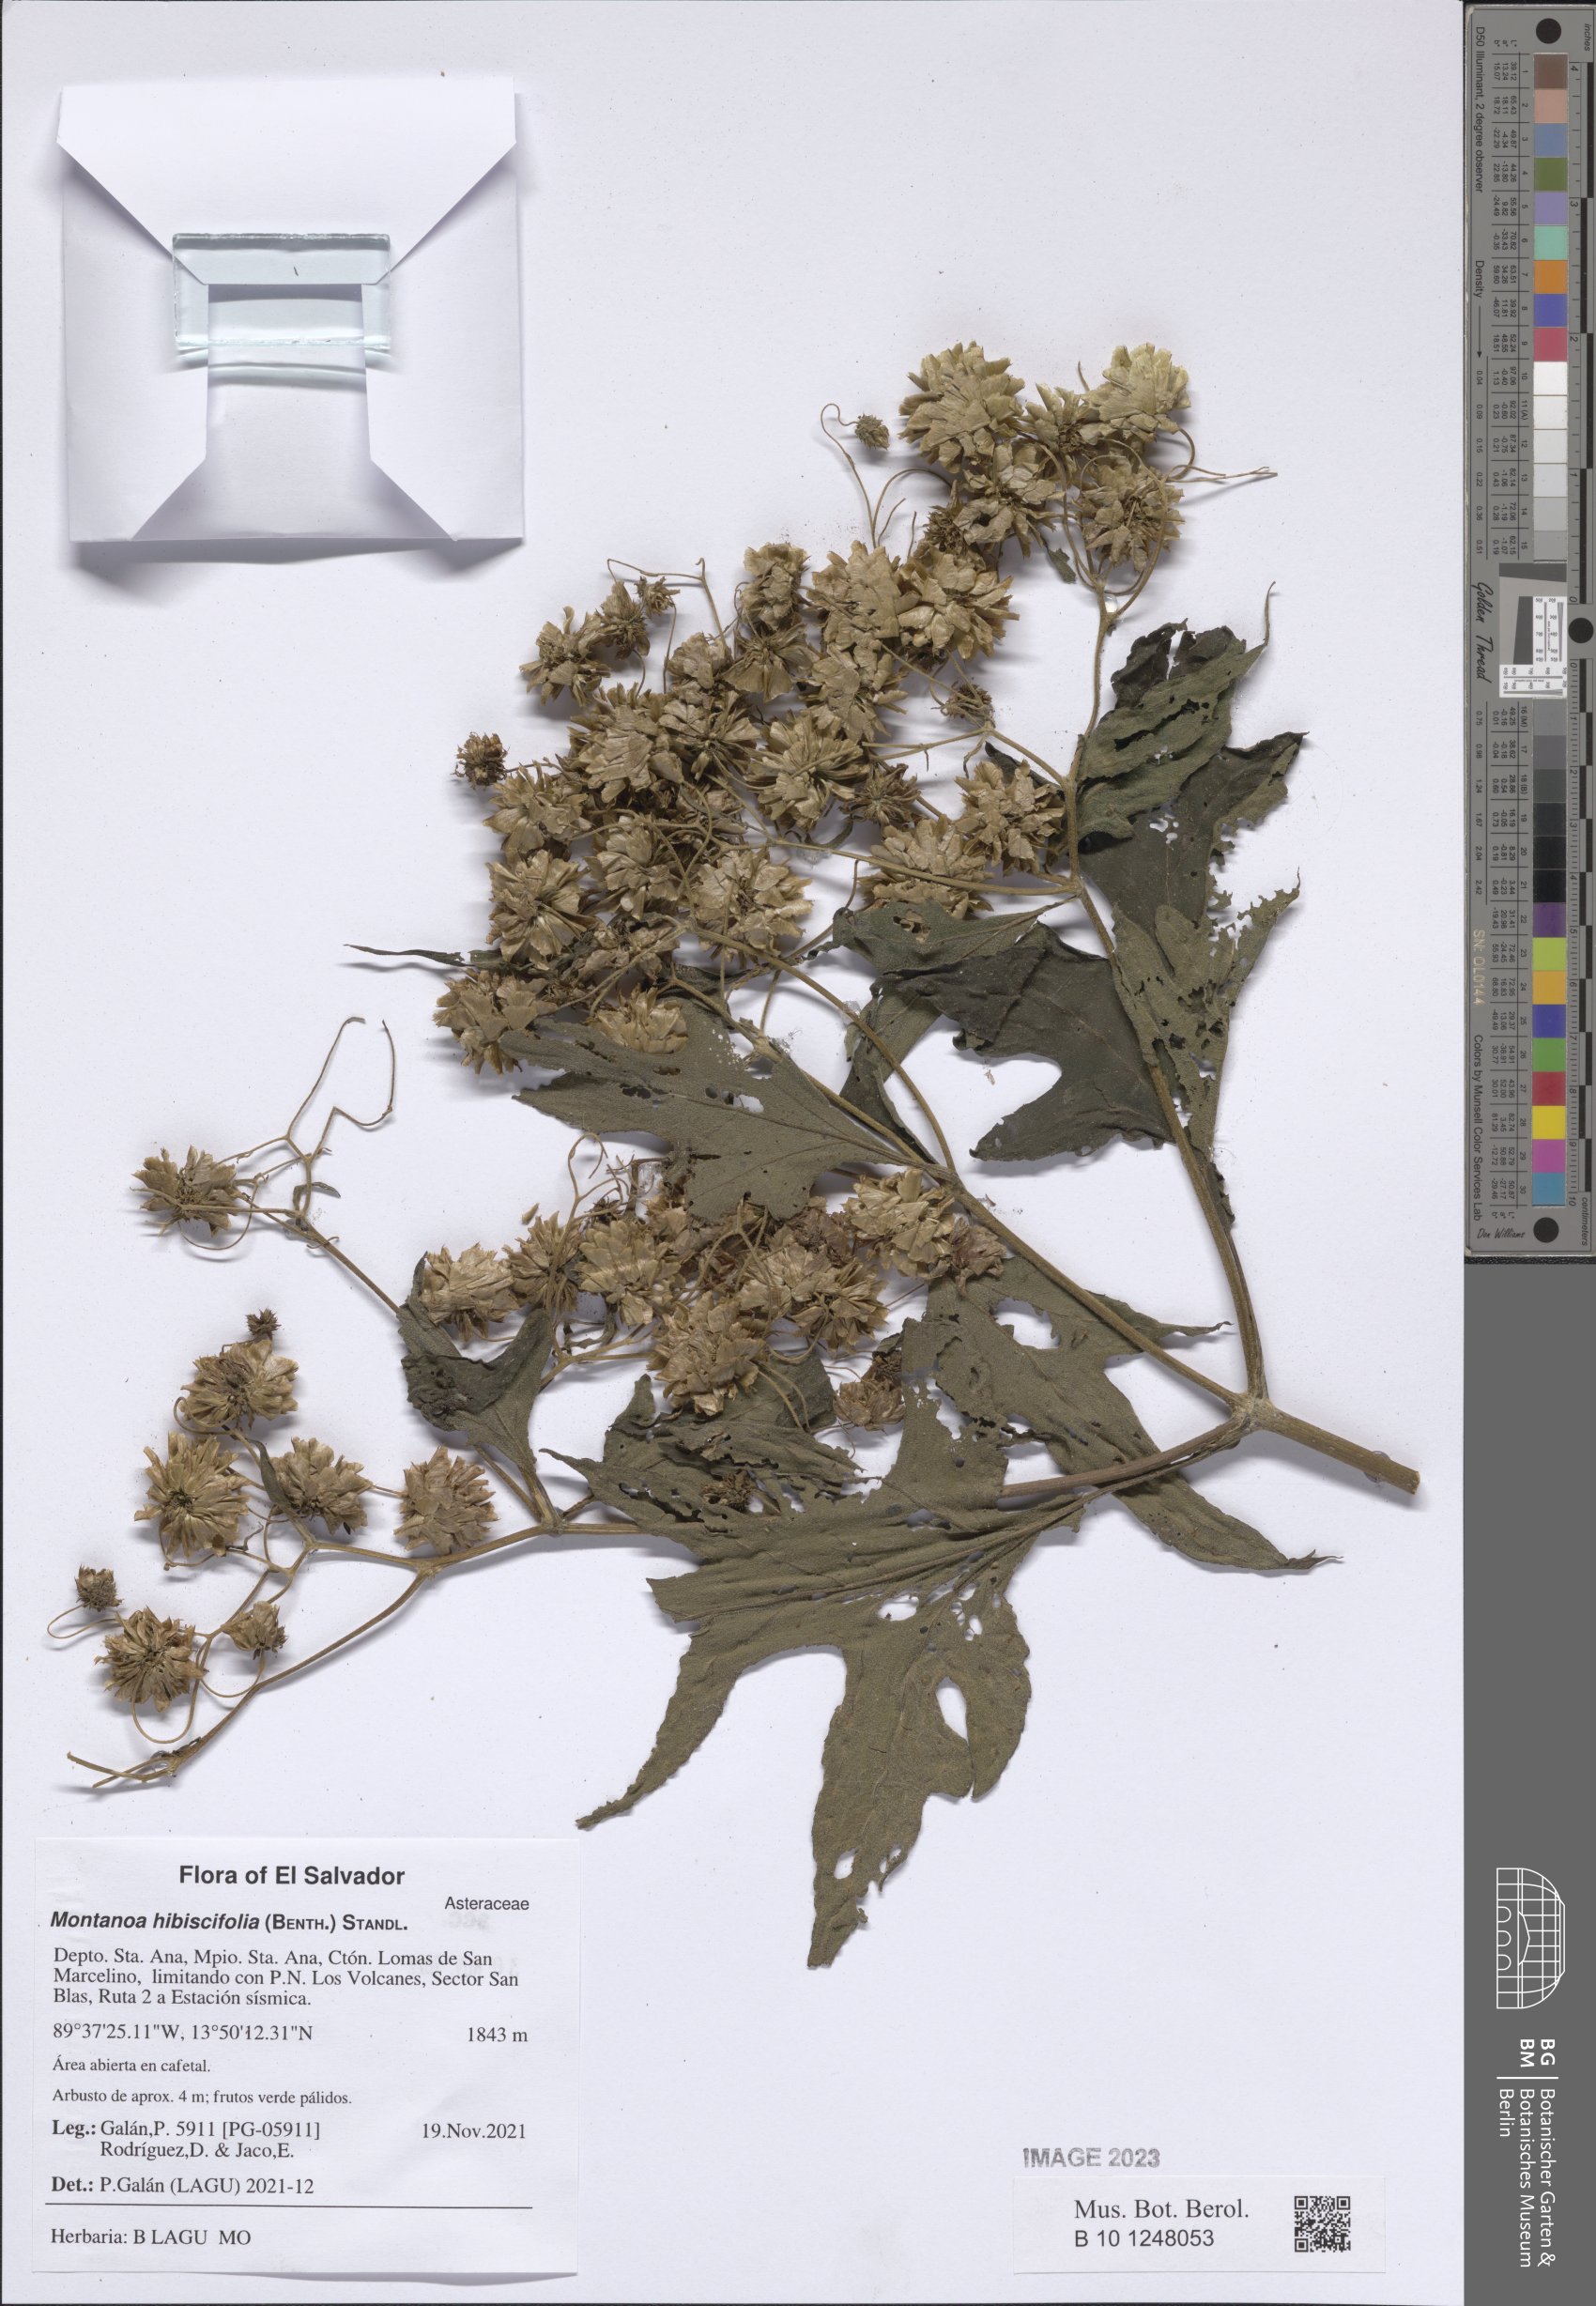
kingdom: Plantae
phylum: Tracheophyta
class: Magnoliopsida
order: Asterales
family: Asteraceae
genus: Montanoa
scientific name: Montanoa hibiscifolia
